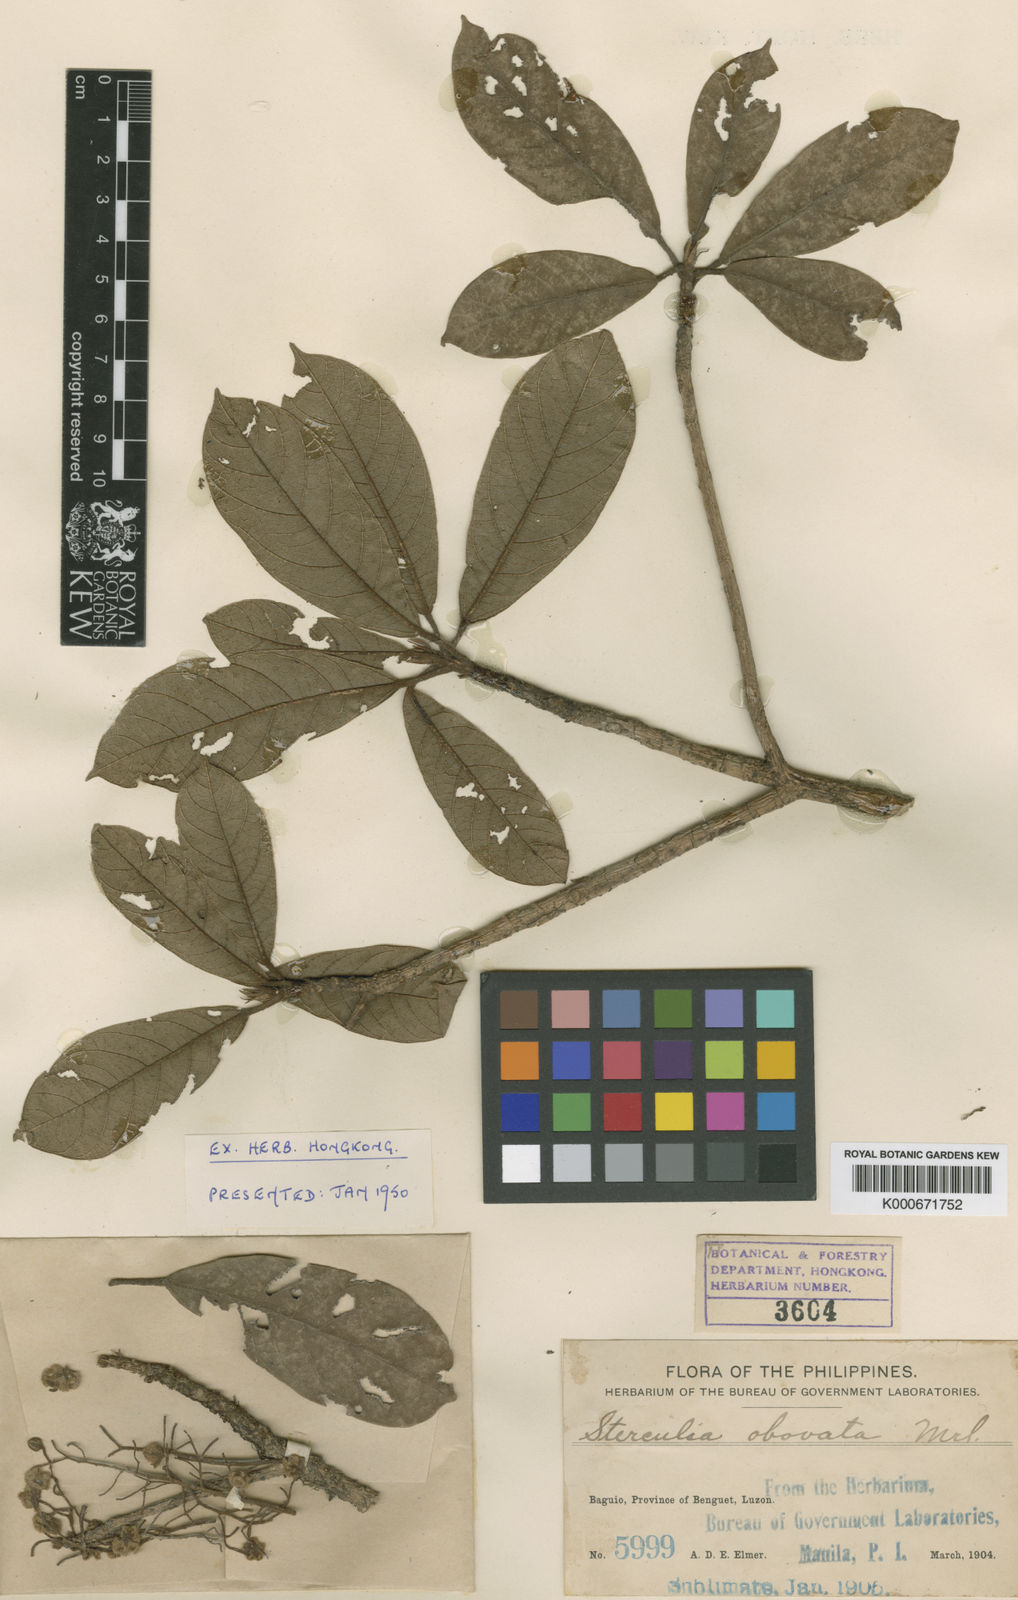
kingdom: Plantae
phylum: Tracheophyta
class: Magnoliopsida
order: Malvales
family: Malvaceae
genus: Sterculia
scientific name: Sterculia rubiginosa
